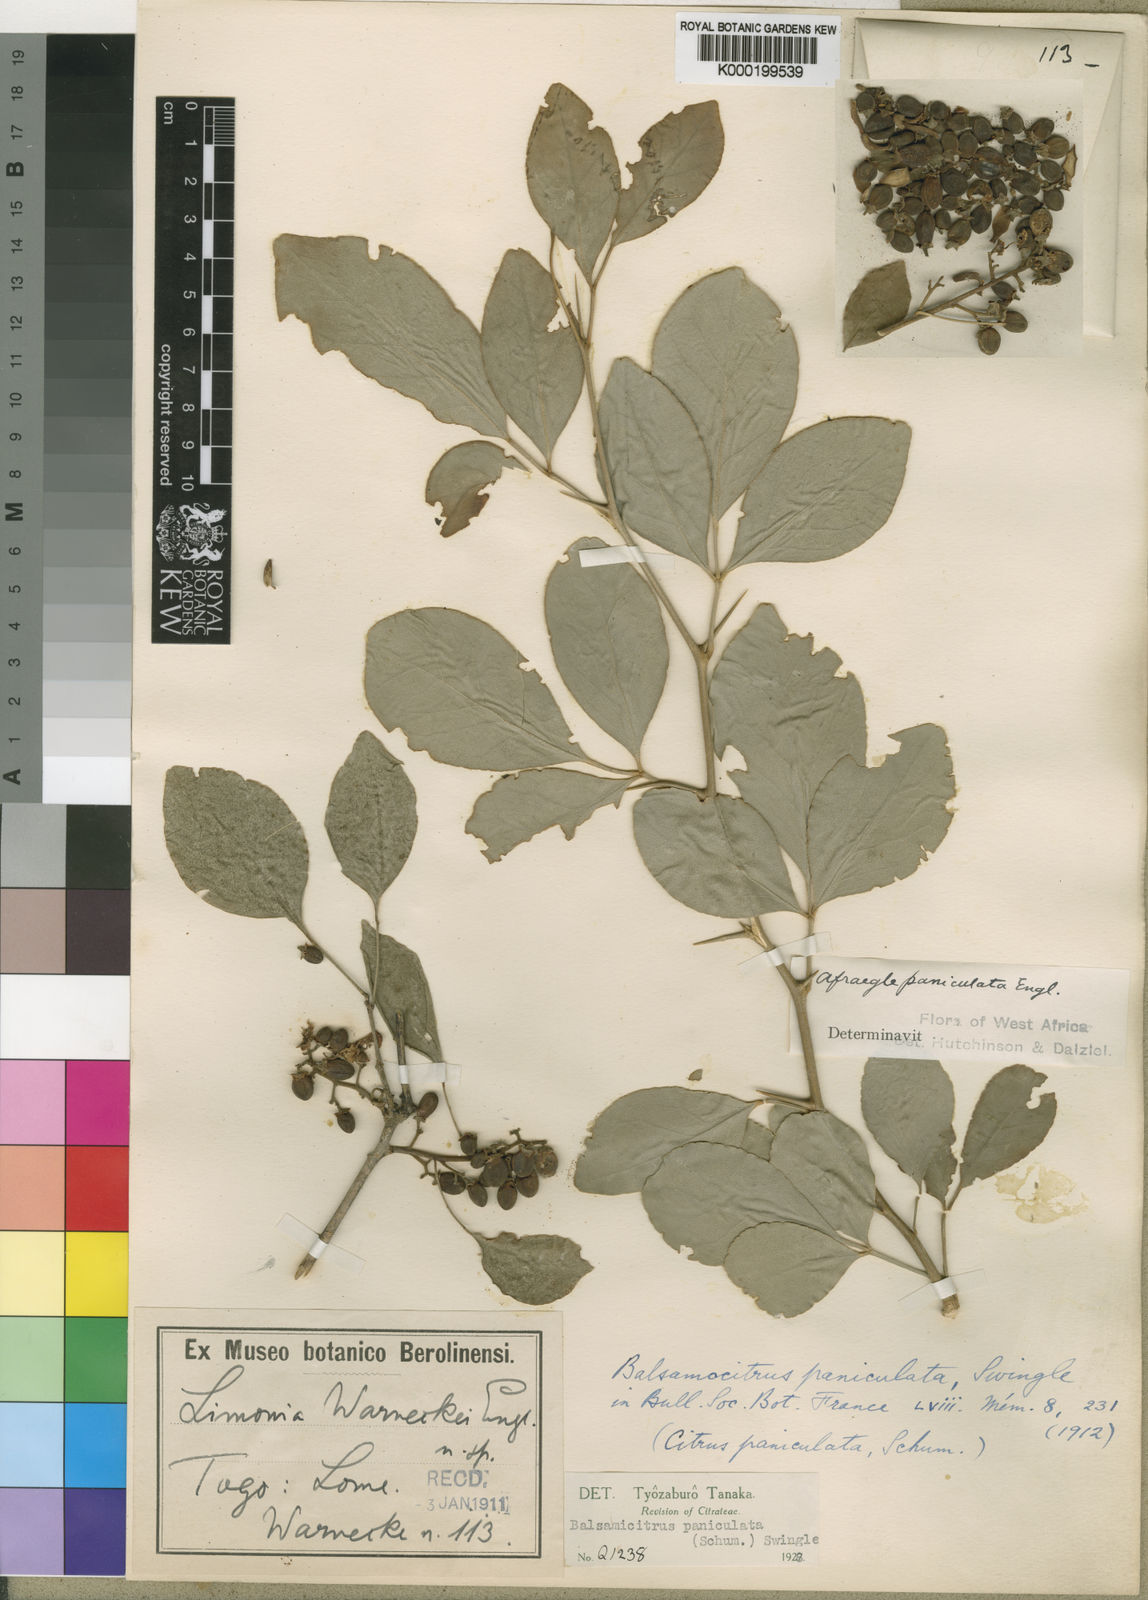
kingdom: Plantae
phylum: Tracheophyta
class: Magnoliopsida
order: Sapindales
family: Rutaceae
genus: Afraegle
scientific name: Afraegle paniculata
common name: Guin-guin
